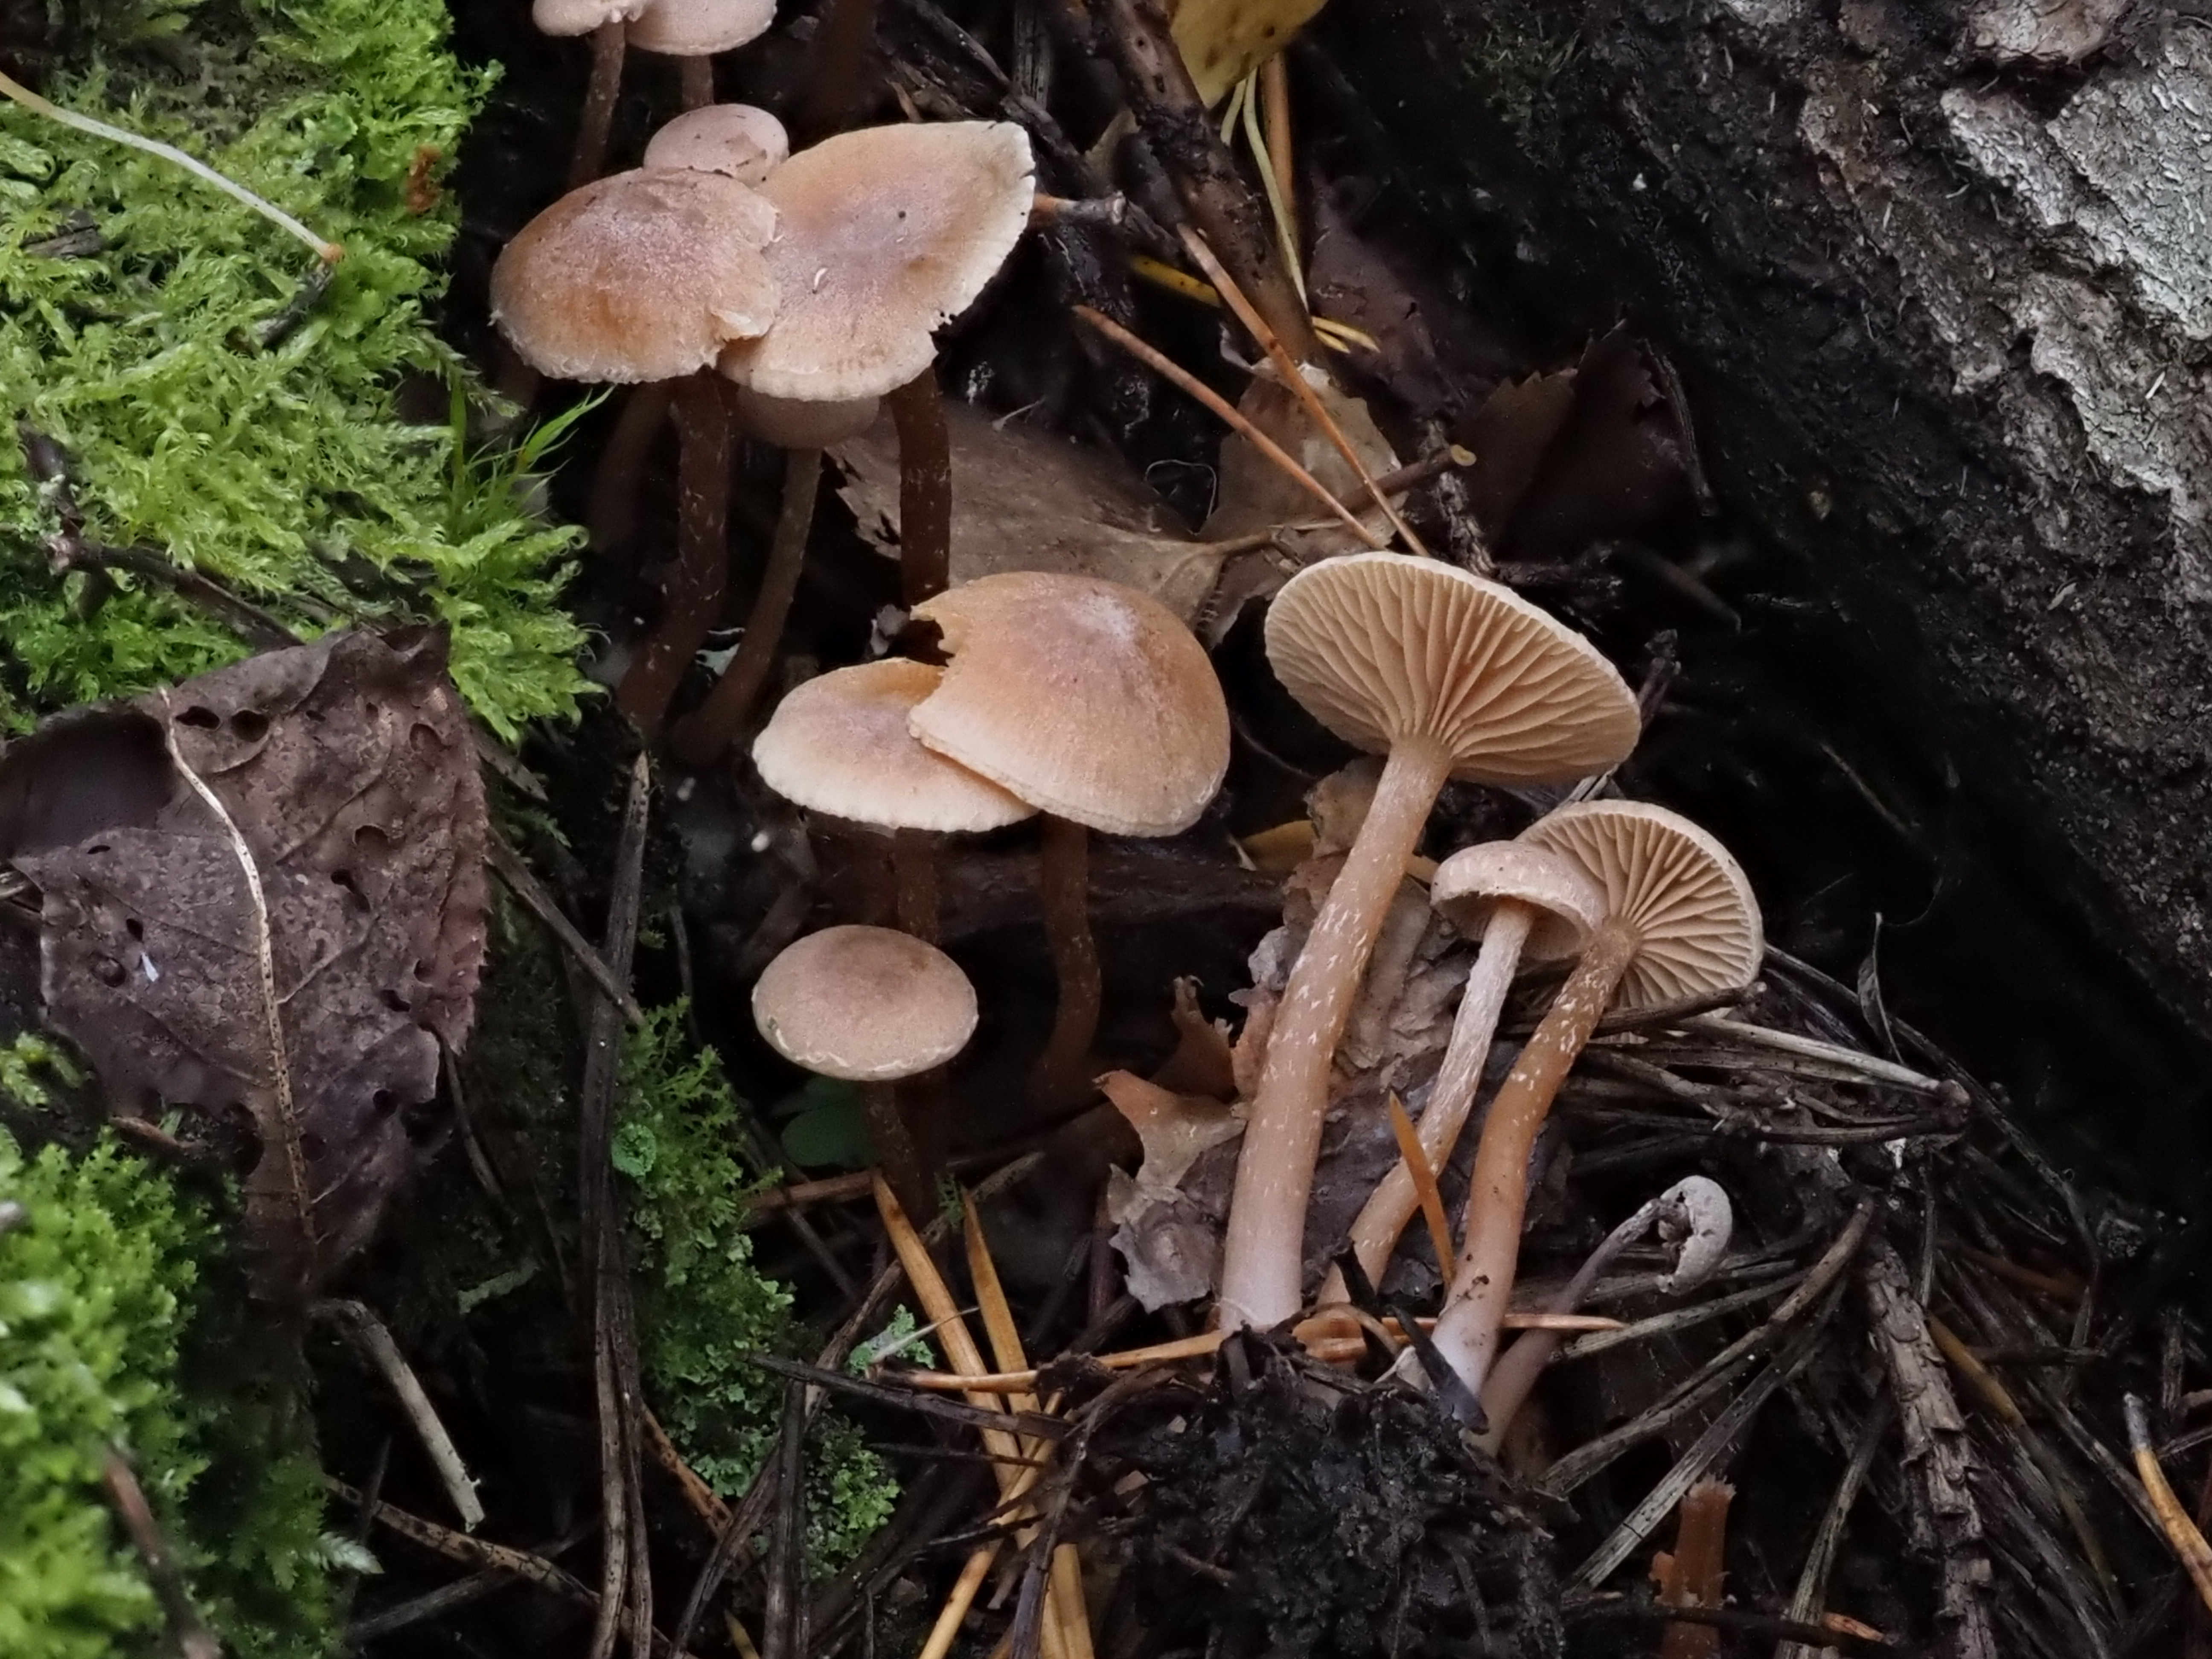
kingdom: Fungi
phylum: Basidiomycota
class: Agaricomycetes
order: Agaricales
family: Tubariaceae
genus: Tubaria
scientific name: Tubaria conspersa
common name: Felted twiglet
